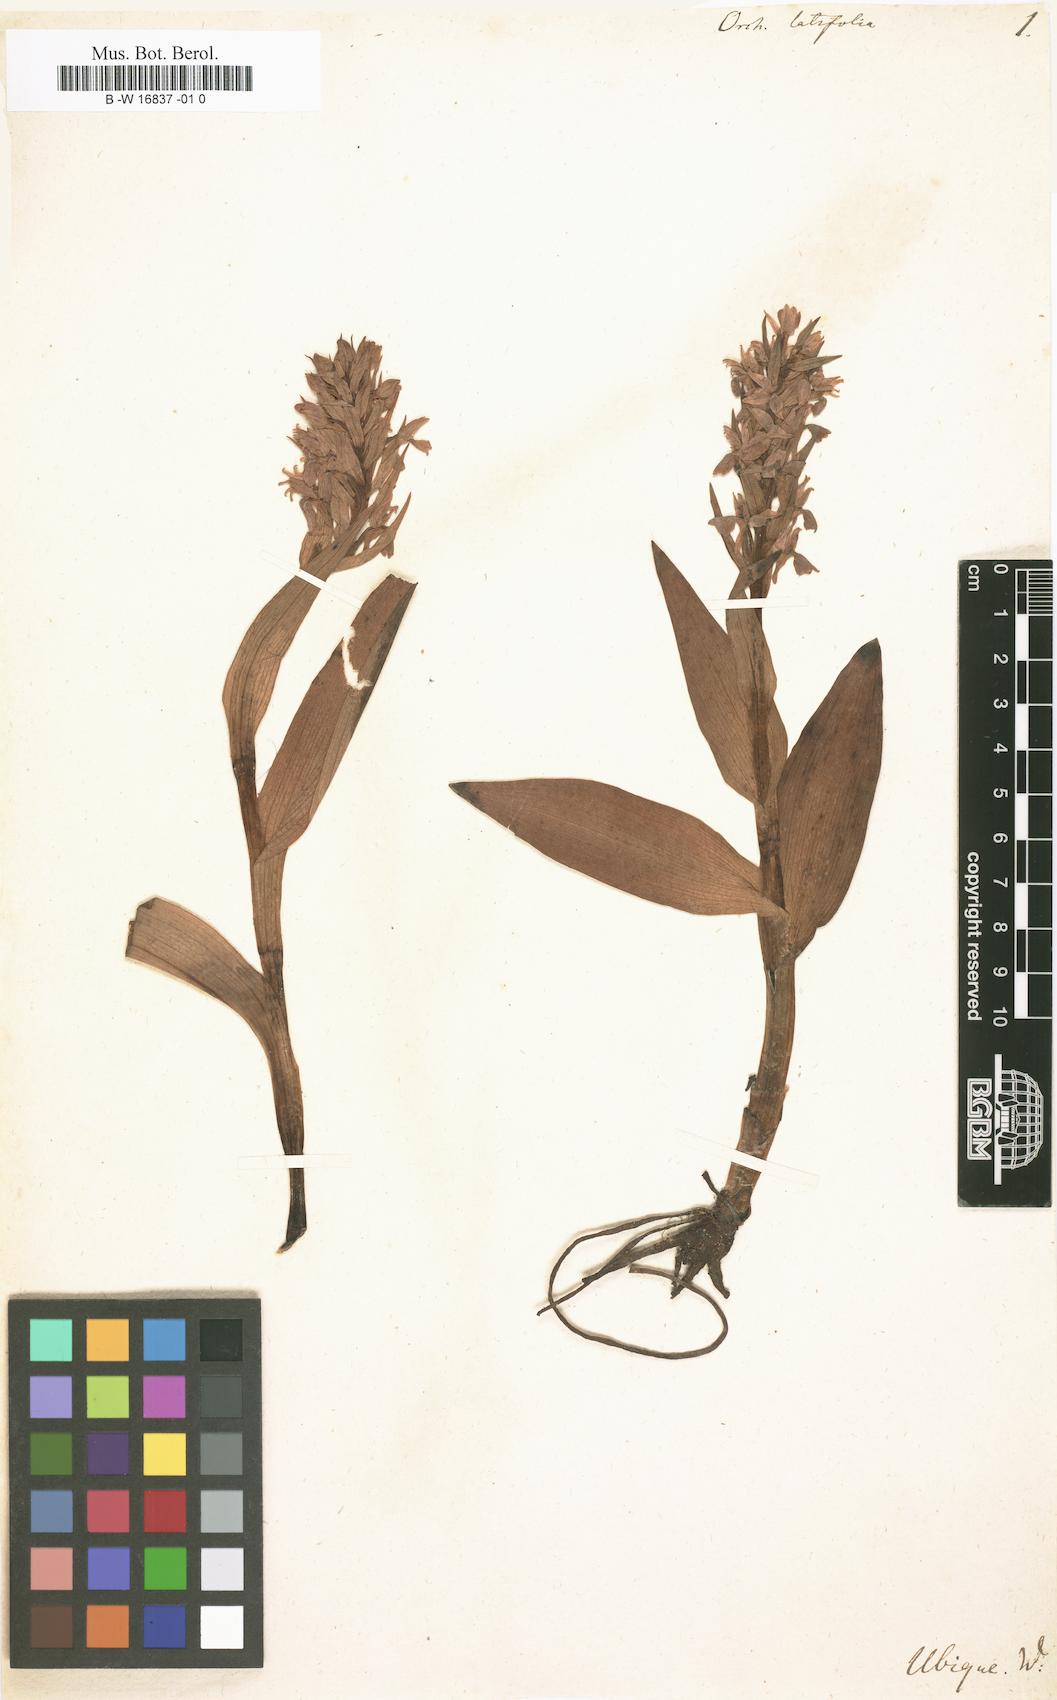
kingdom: Plantae
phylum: Tracheophyta
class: Liliopsida
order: Asparagales
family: Orchidaceae
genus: Dactylorhiza
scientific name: Dactylorhiza incarnata
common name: Early marsh-orchid
